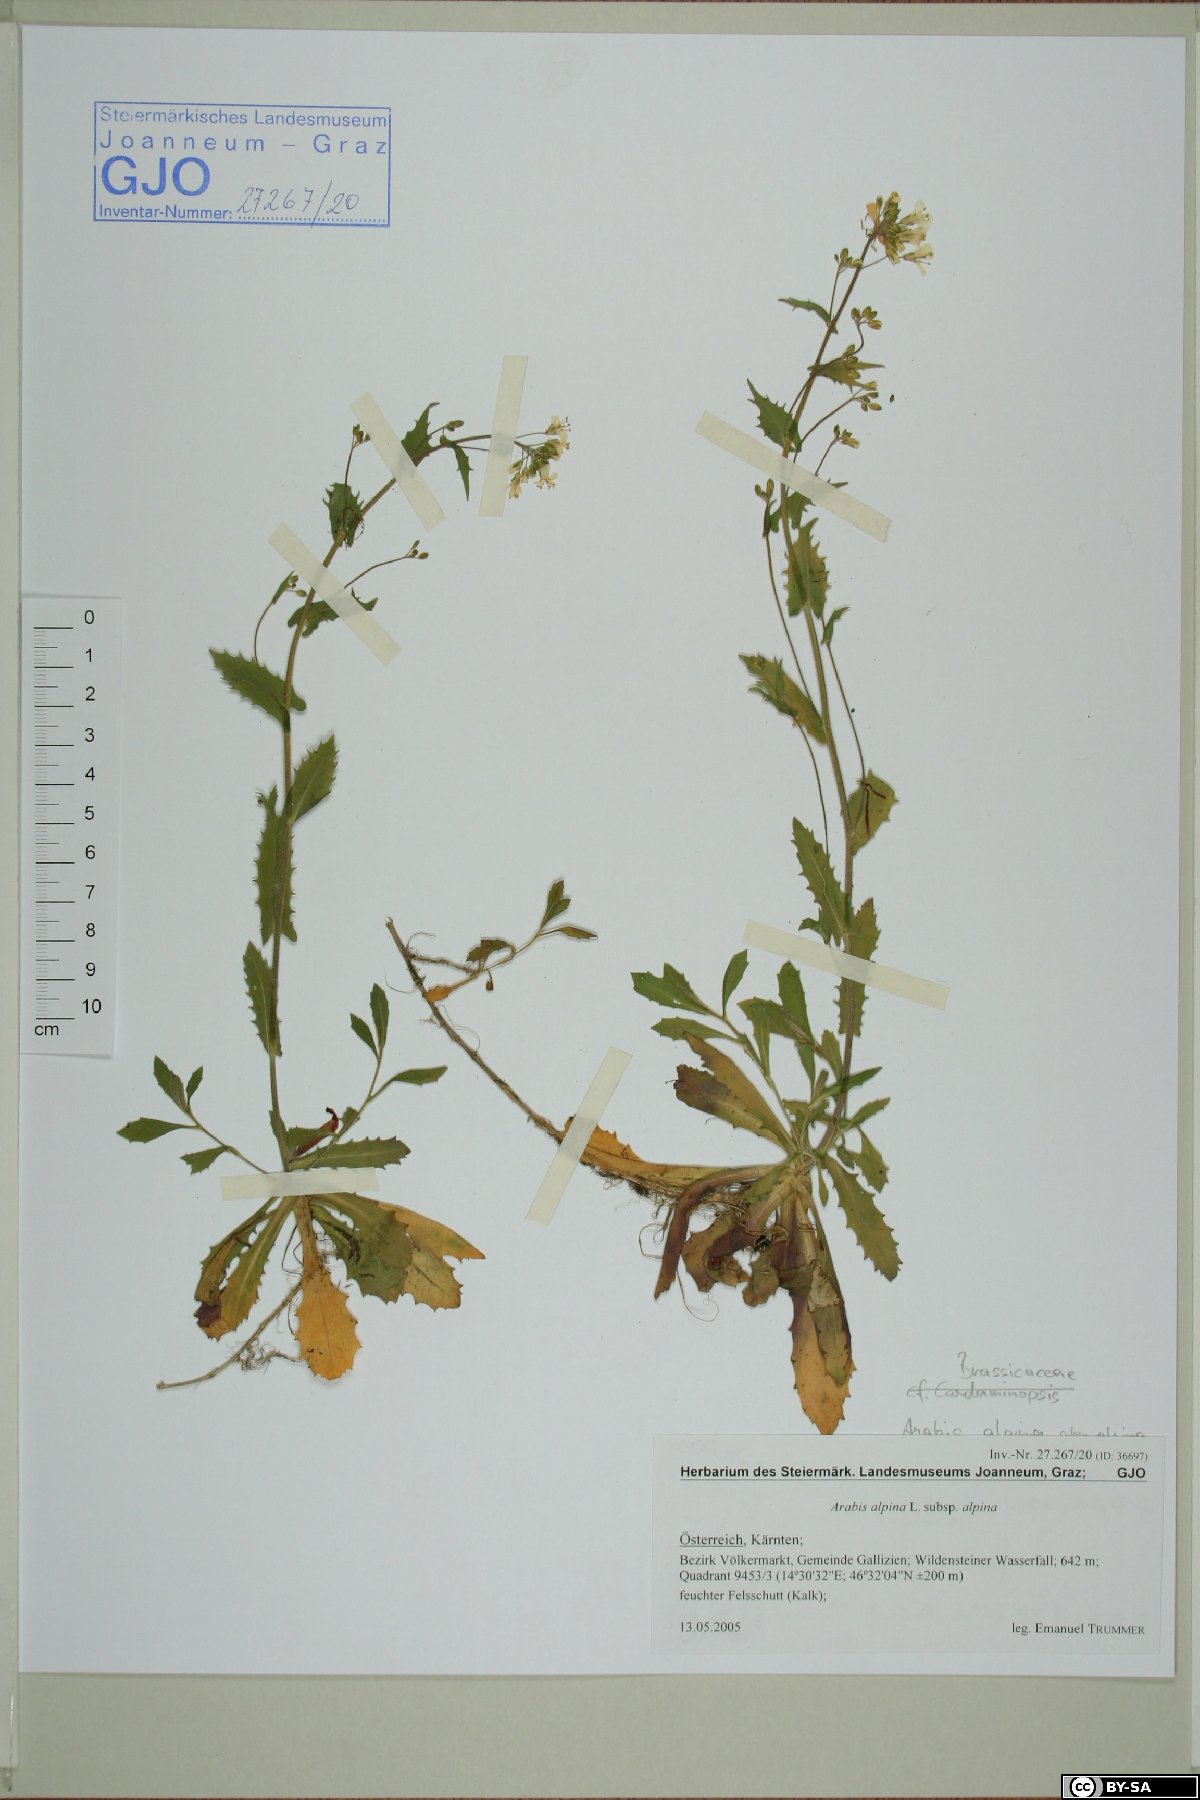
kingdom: Plantae
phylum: Tracheophyta
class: Magnoliopsida
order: Brassicales
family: Brassicaceae
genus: Arabis
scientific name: Arabis alpina
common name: Alpine rock-cress
